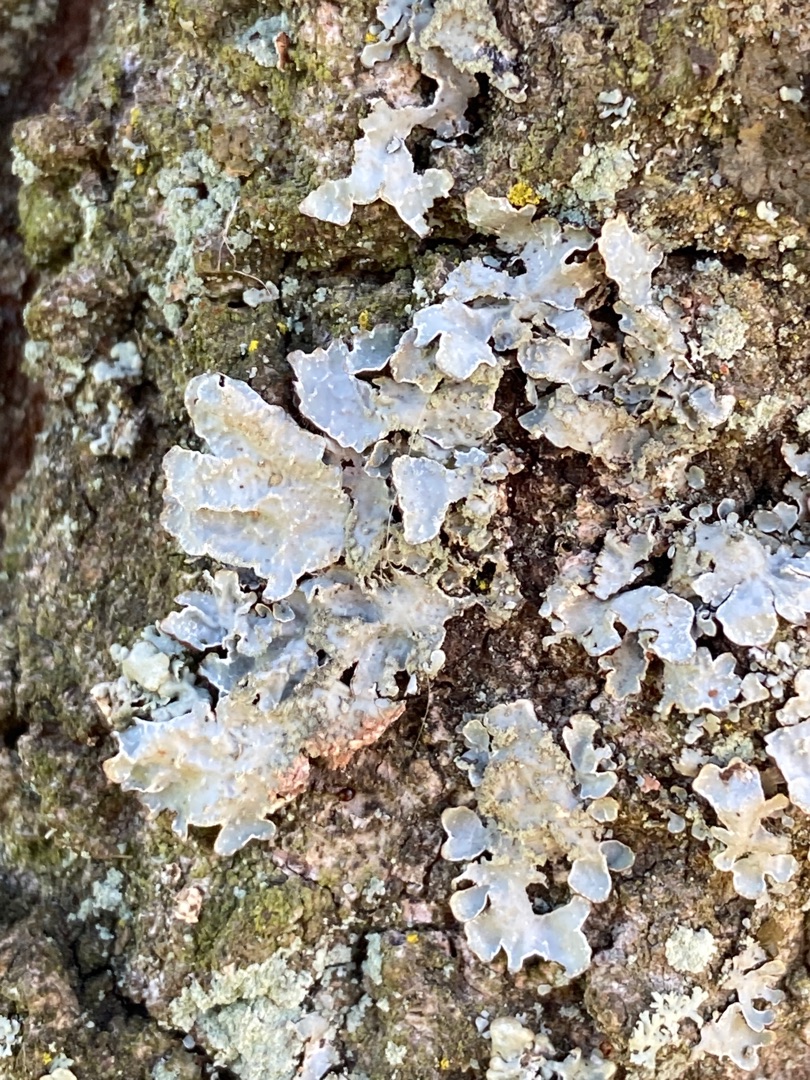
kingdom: Fungi
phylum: Ascomycota
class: Lecanoromycetes
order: Lecanorales
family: Parmeliaceae
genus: Parmelia
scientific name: Parmelia sulcata
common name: Rynket skållav
